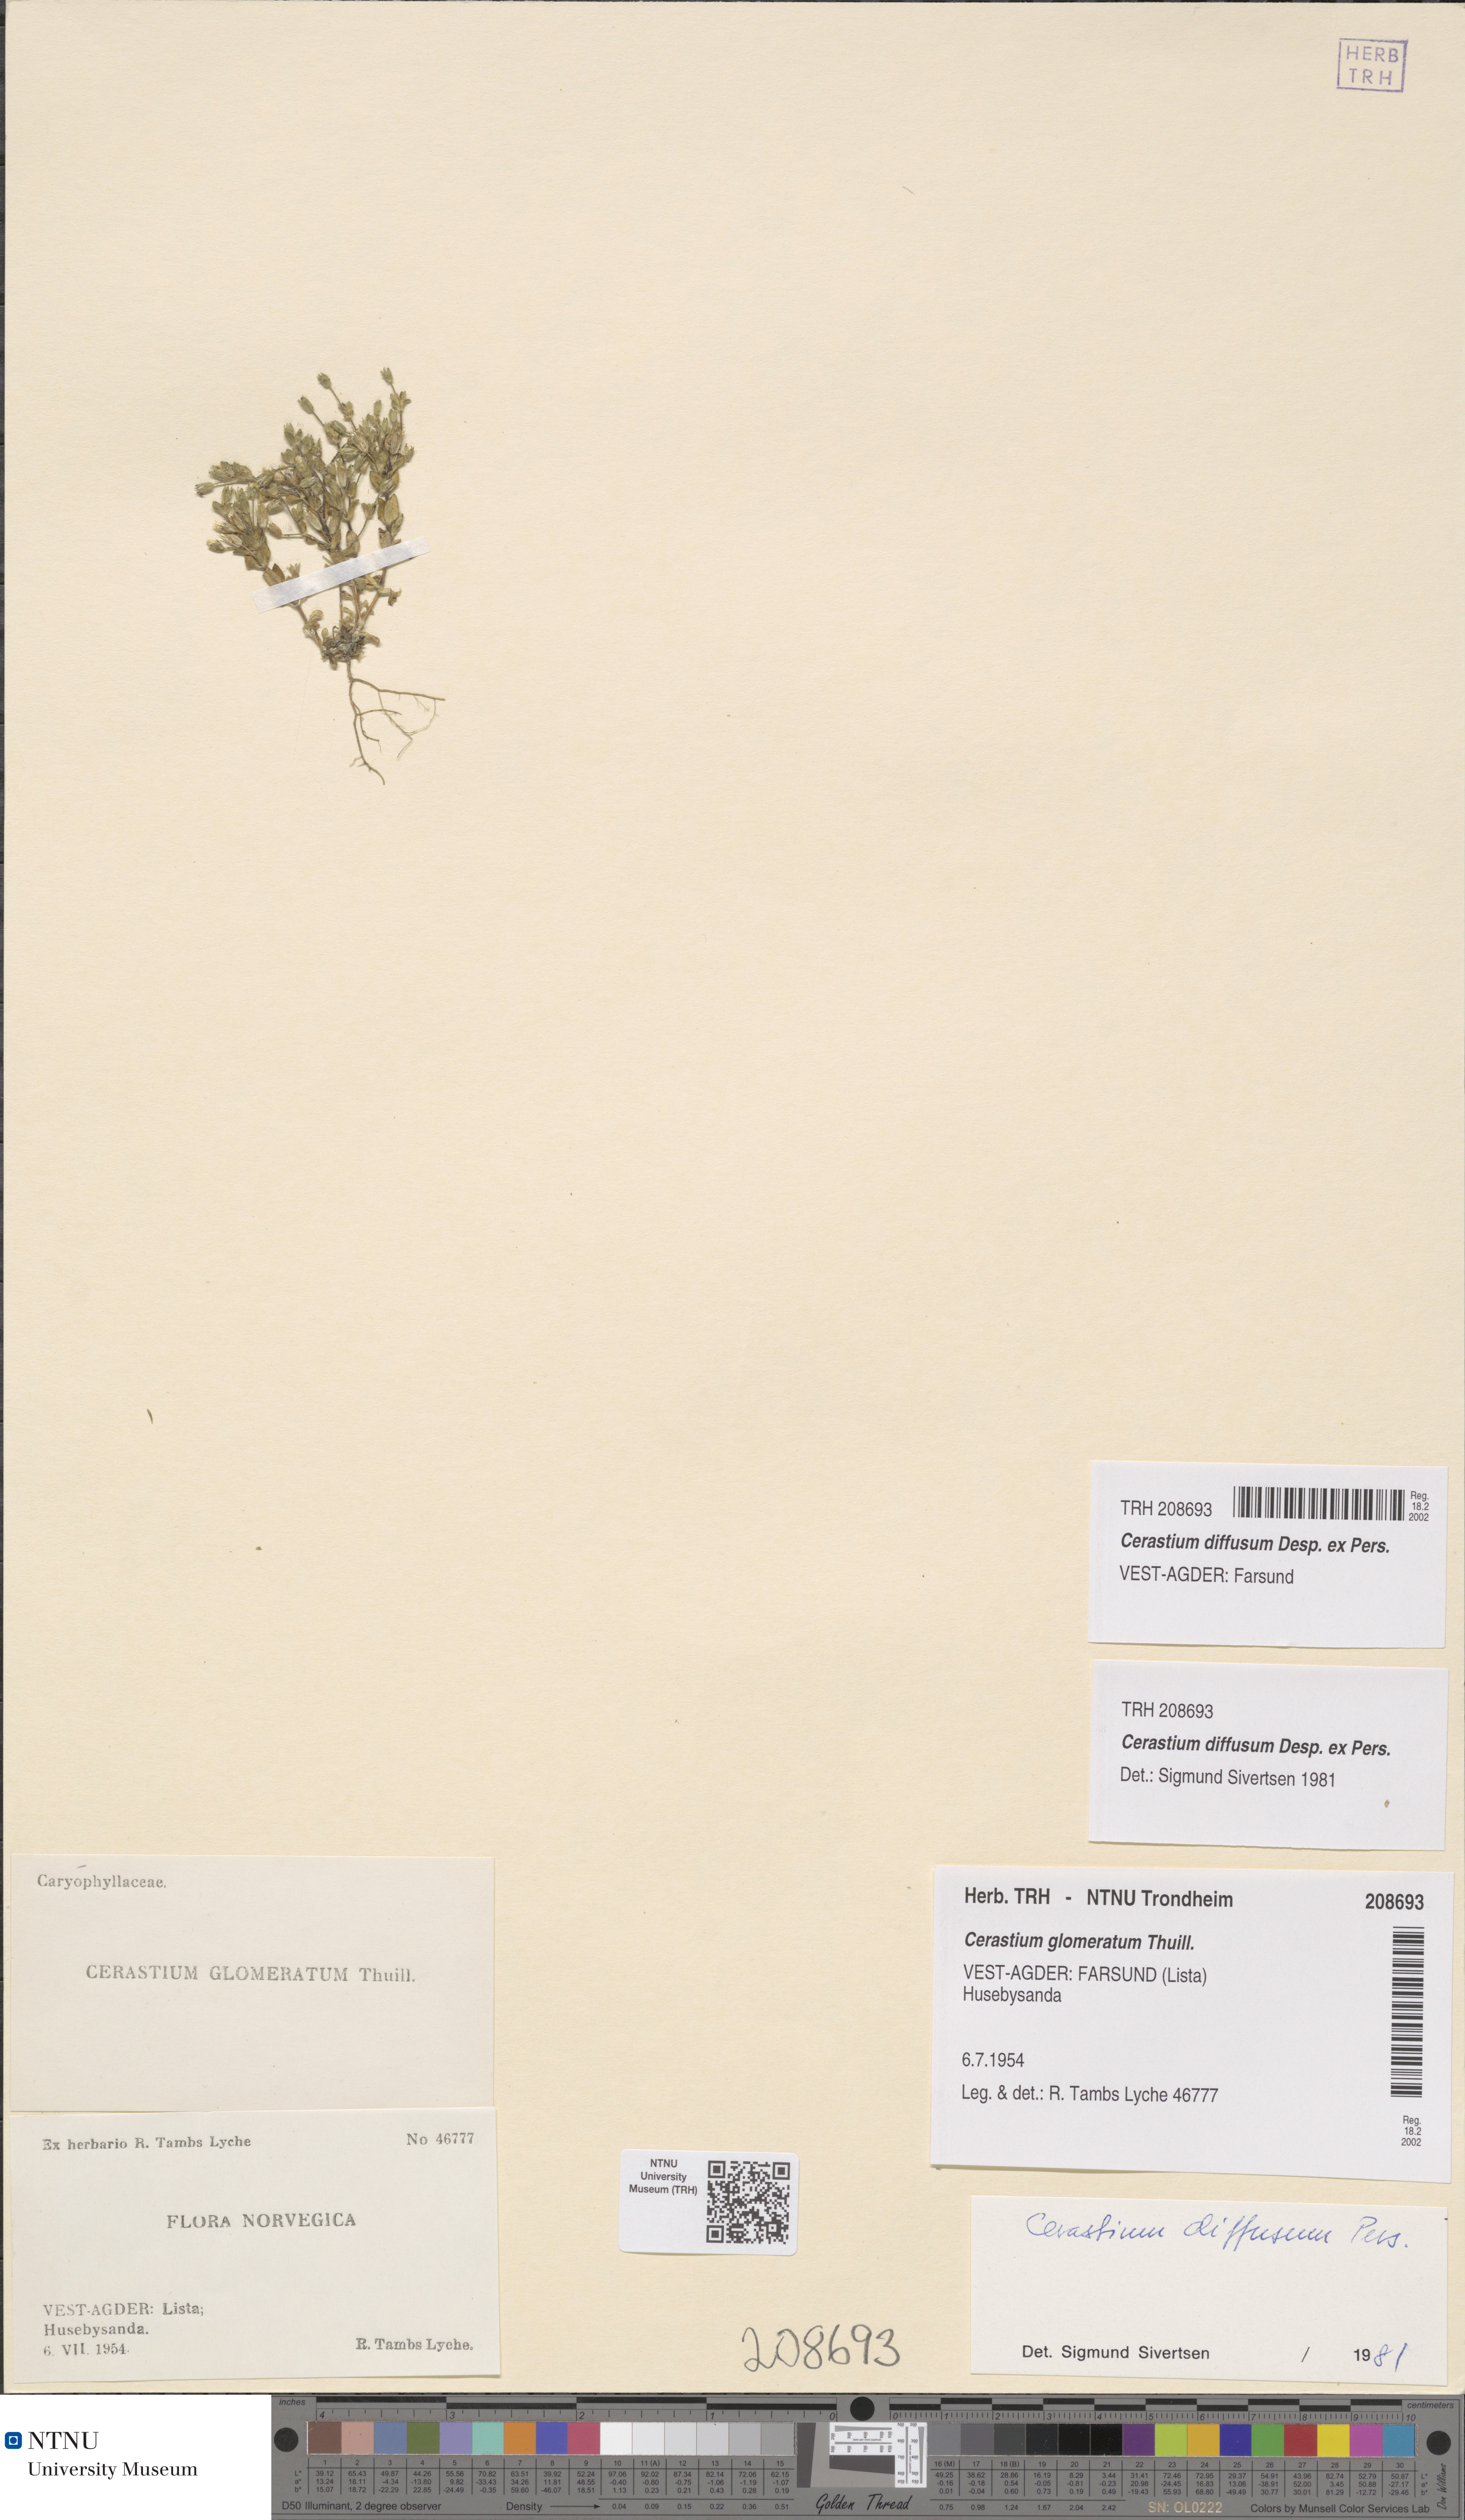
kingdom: Plantae
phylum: Tracheophyta
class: Magnoliopsida
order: Caryophyllales
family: Caryophyllaceae
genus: Cerastium
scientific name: Cerastium diffusum
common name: Fourstamen chickweed
